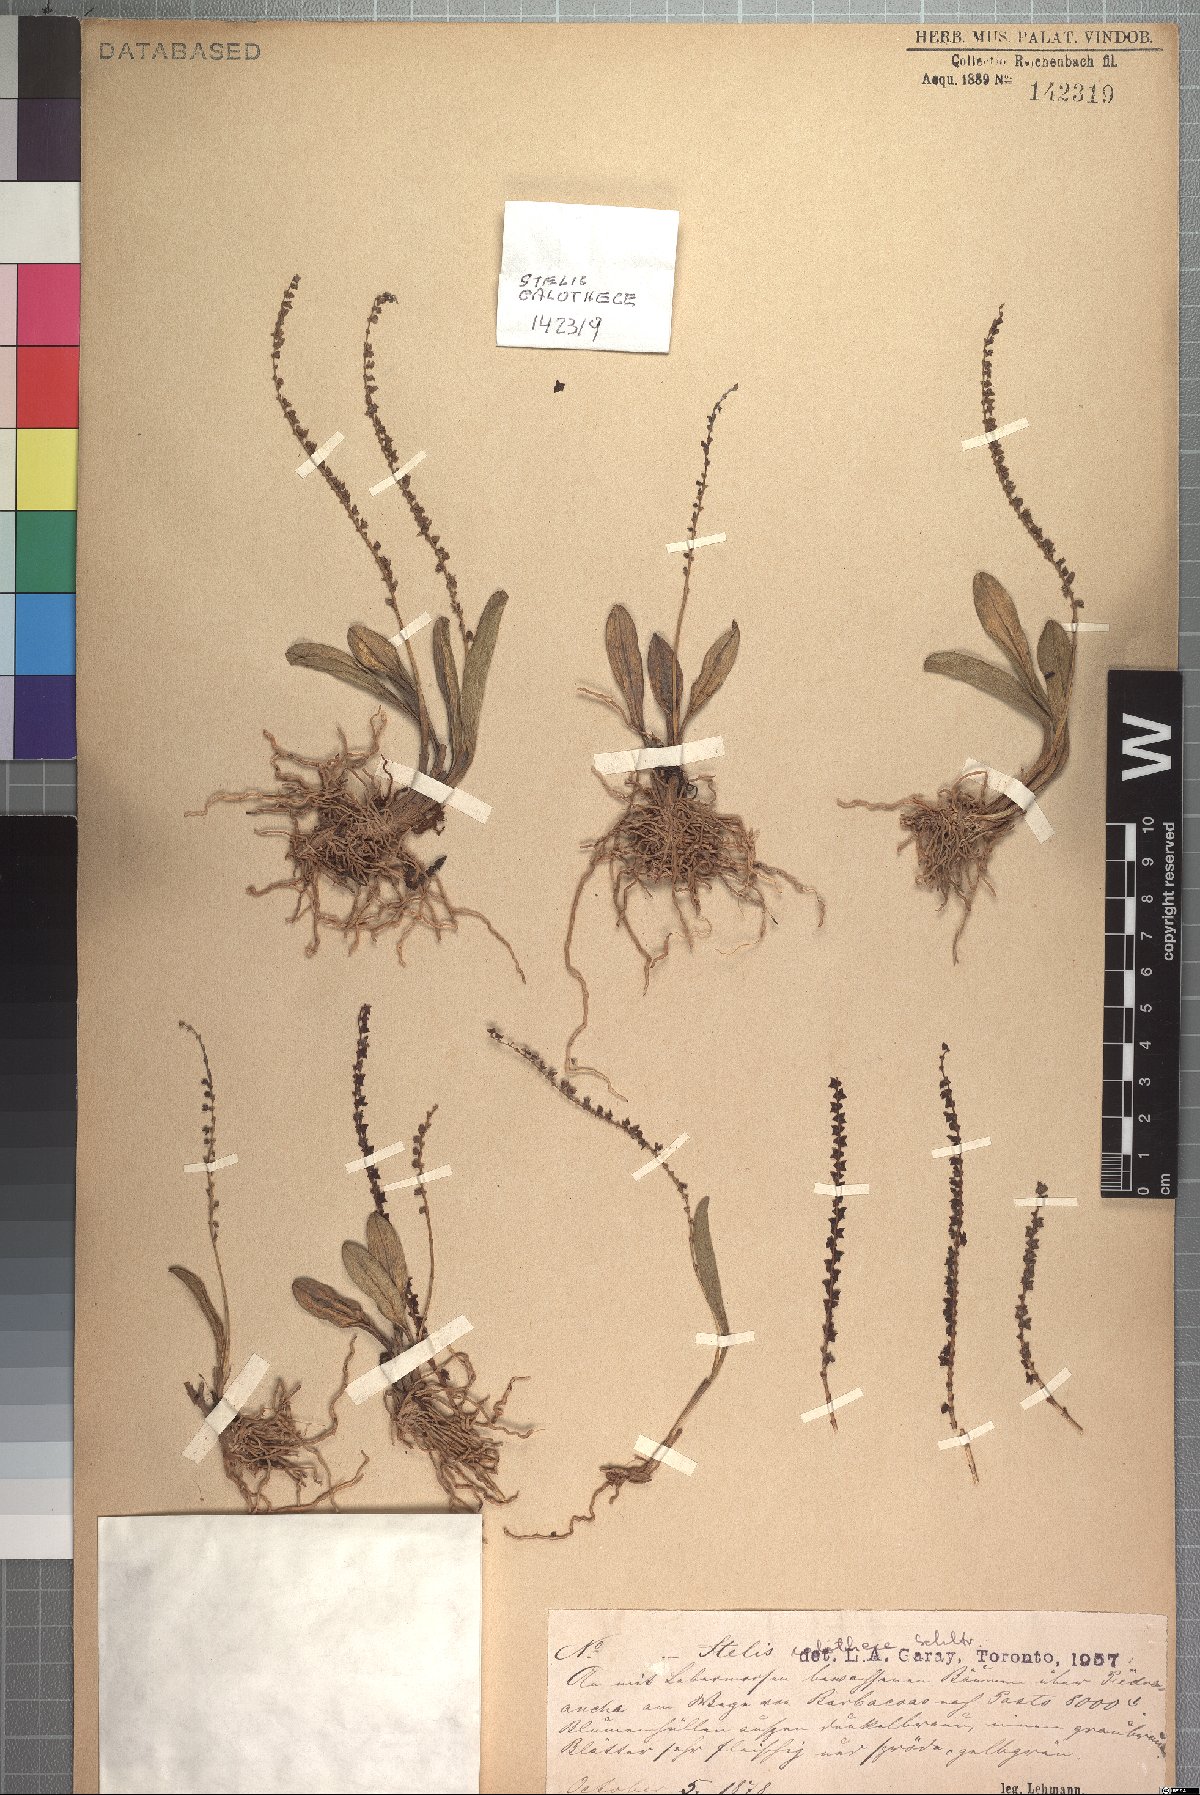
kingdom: Plantae
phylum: Tracheophyta
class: Liliopsida
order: Asparagales
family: Orchidaceae
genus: Stelis
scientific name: Stelis calothece
